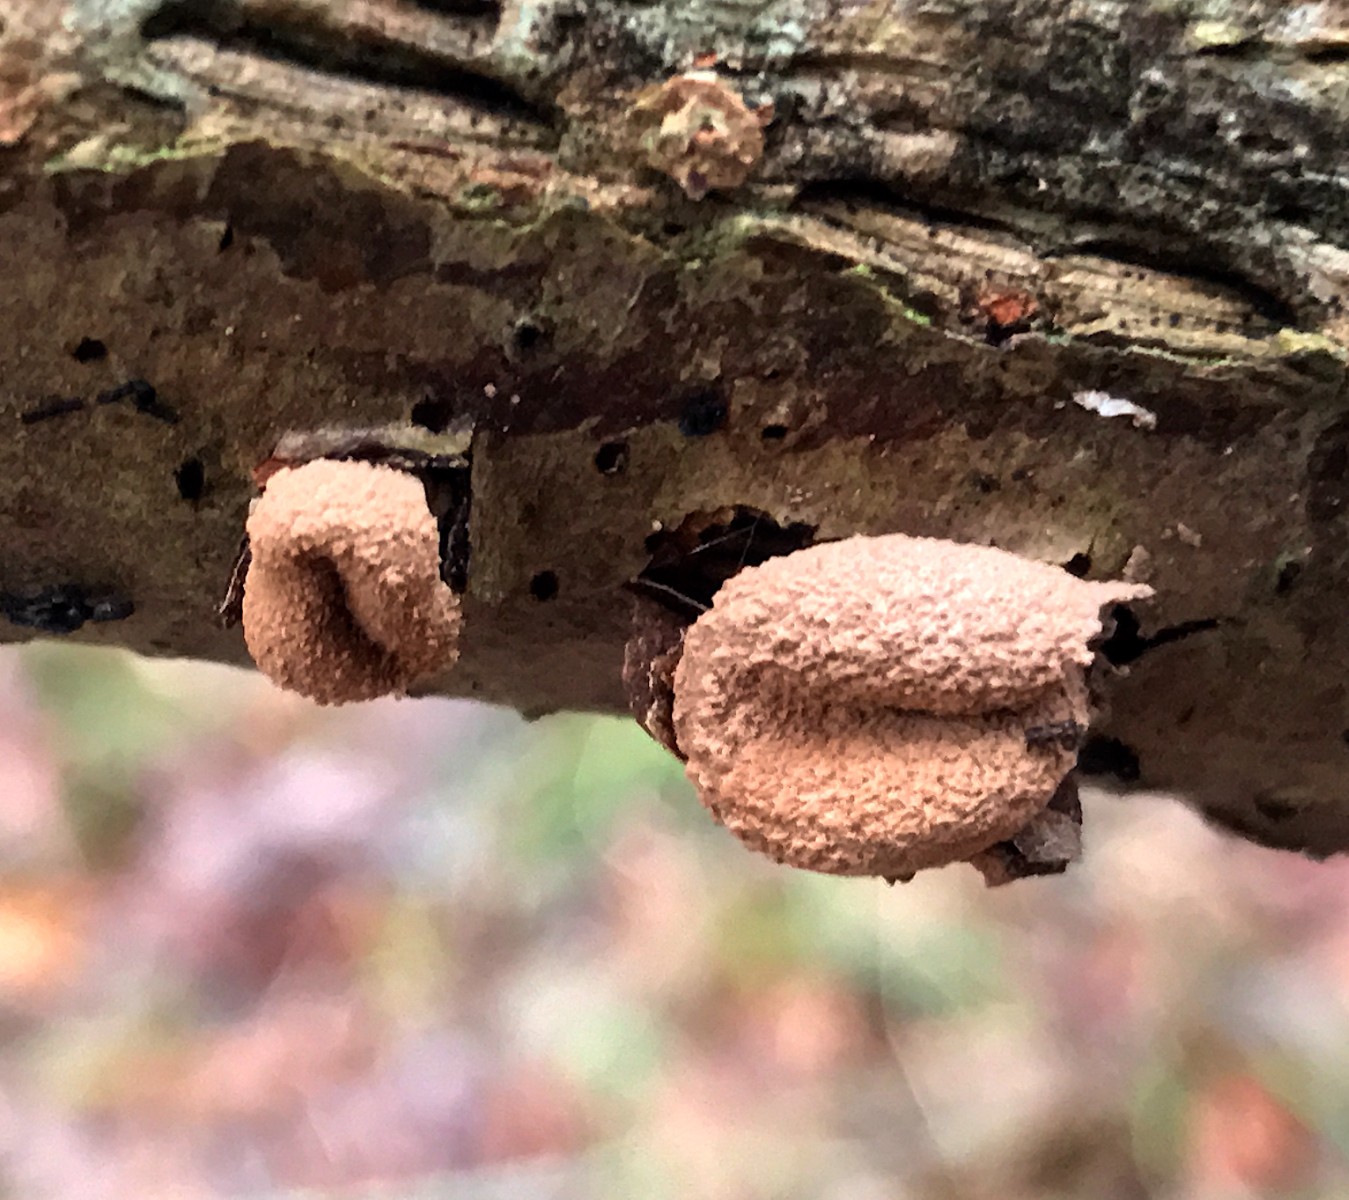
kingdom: Fungi
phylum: Ascomycota
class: Leotiomycetes
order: Helotiales
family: Cenangiaceae
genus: Encoelia
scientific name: Encoelia furfuracea
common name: hassel-læderskive
